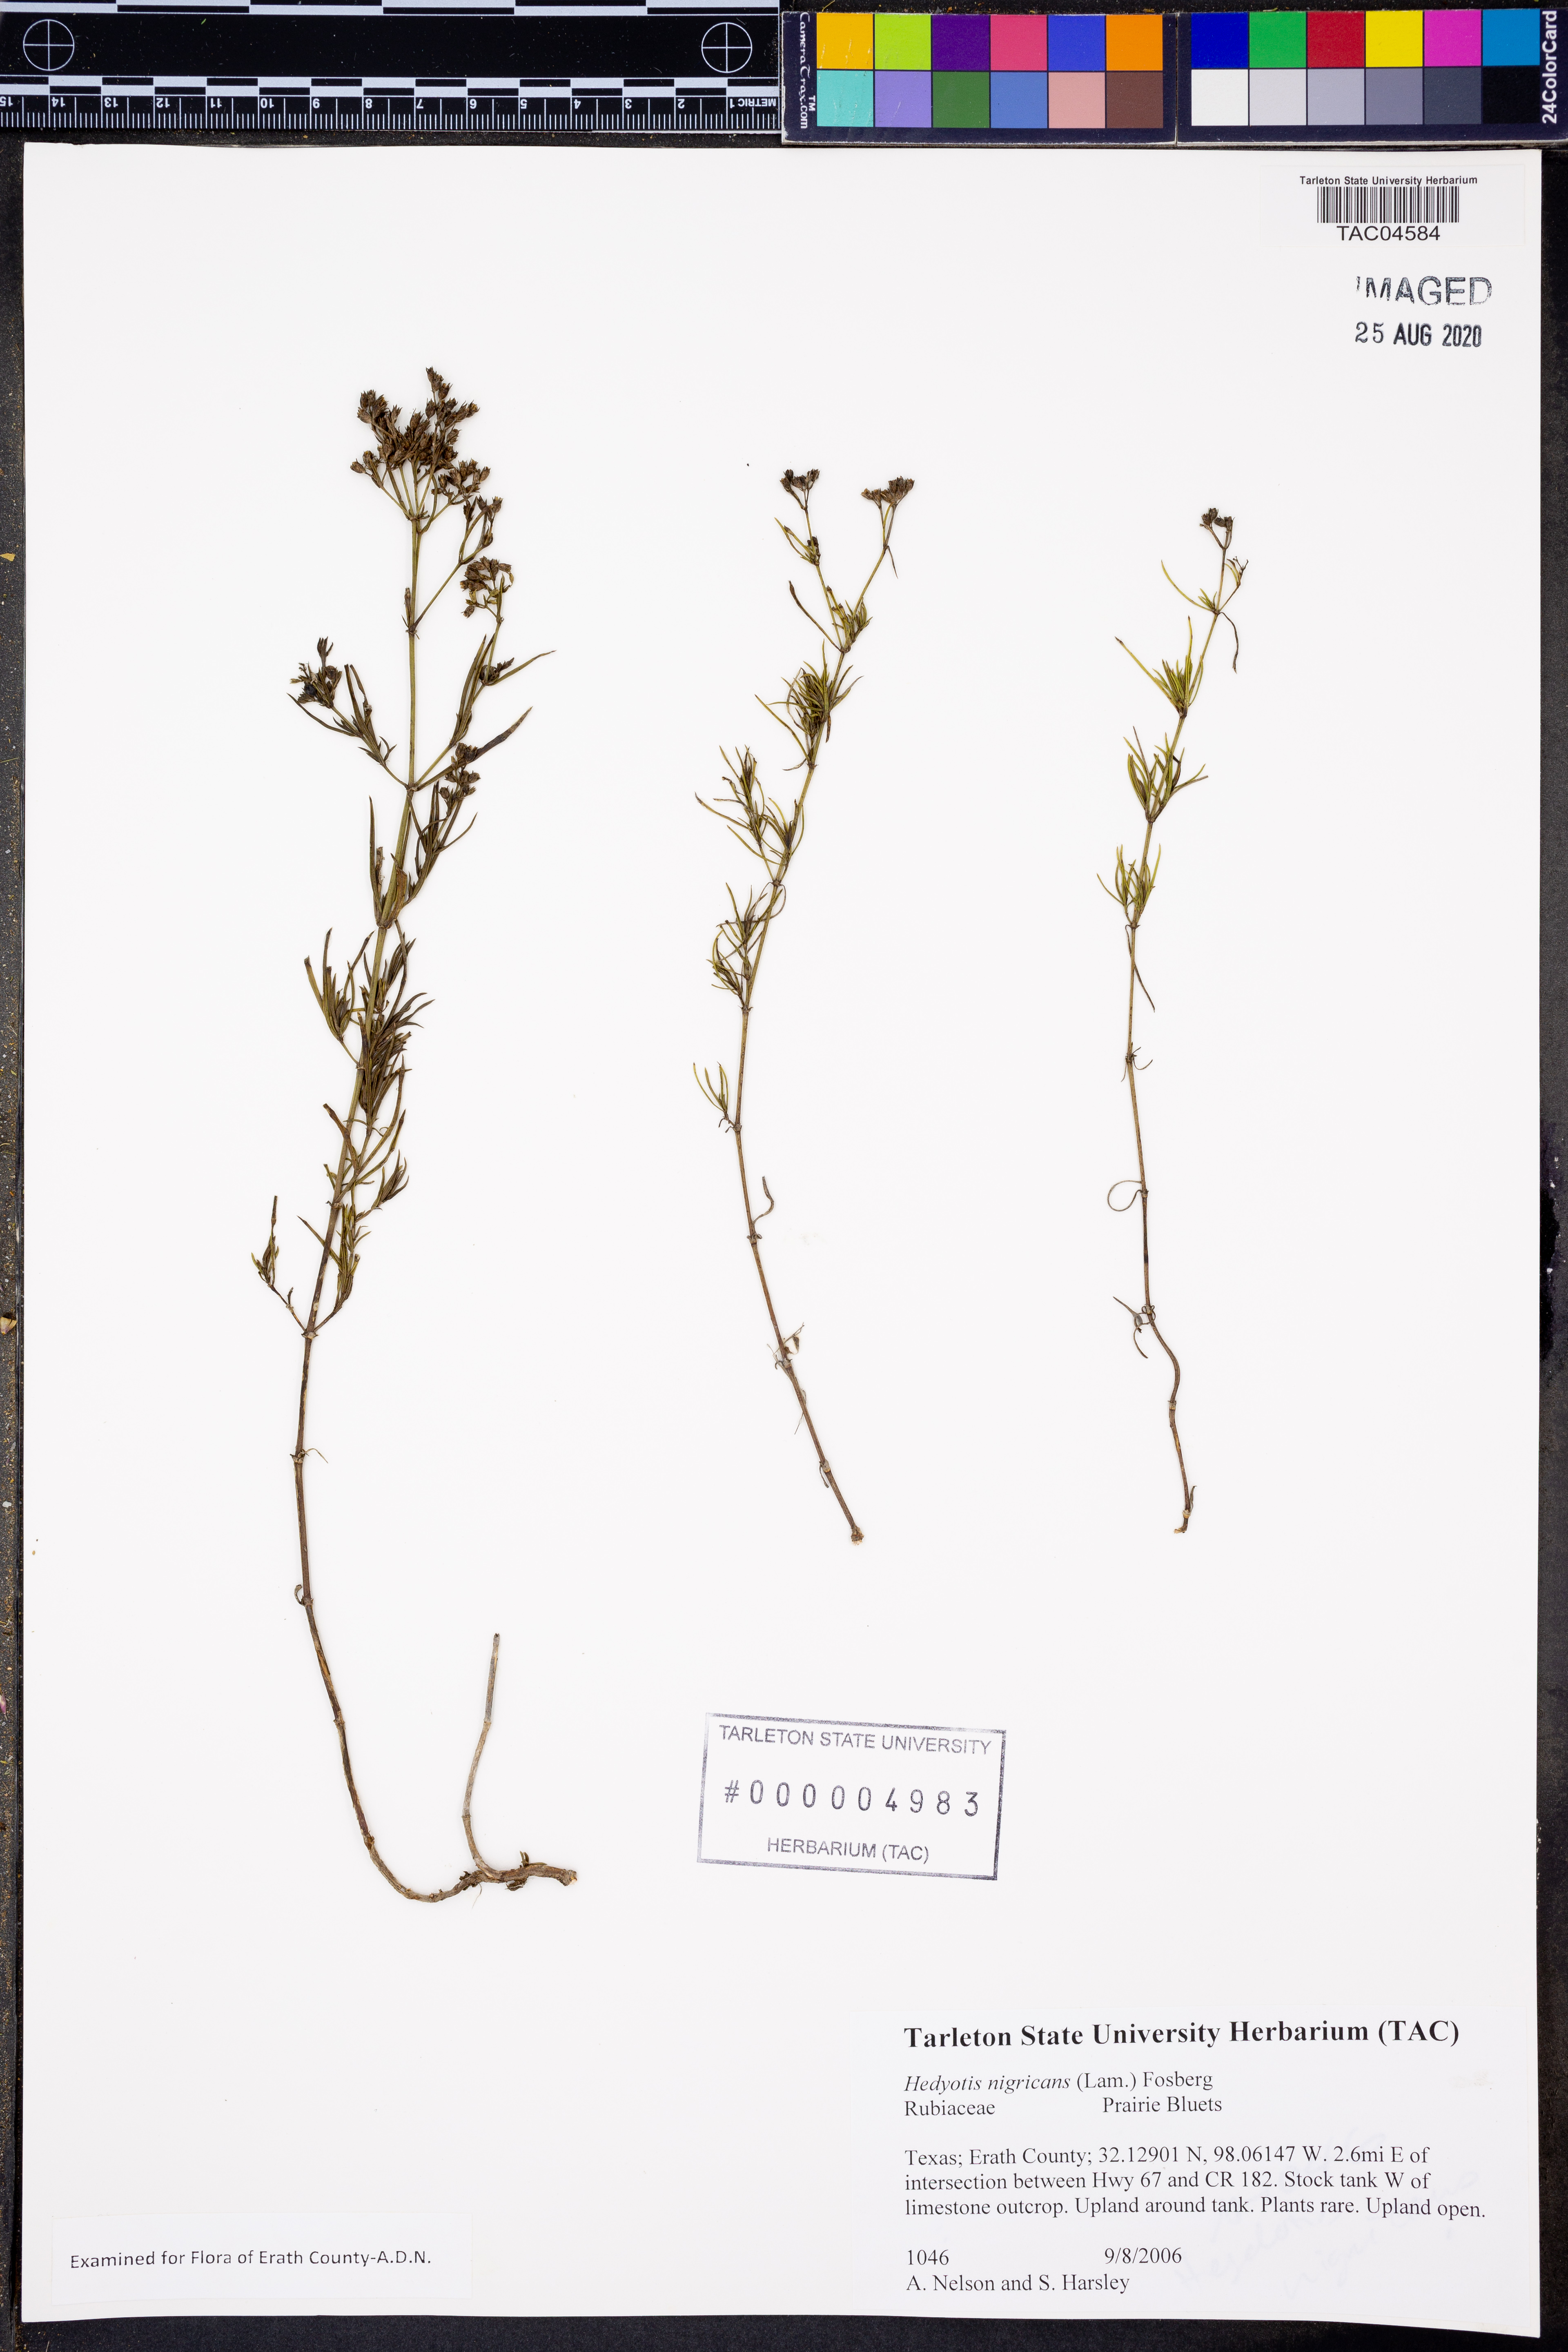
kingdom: Plantae
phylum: Tracheophyta
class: Magnoliopsida
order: Gentianales
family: Rubiaceae
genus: Stenaria
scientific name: Stenaria nigricans
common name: Diamondflowers
